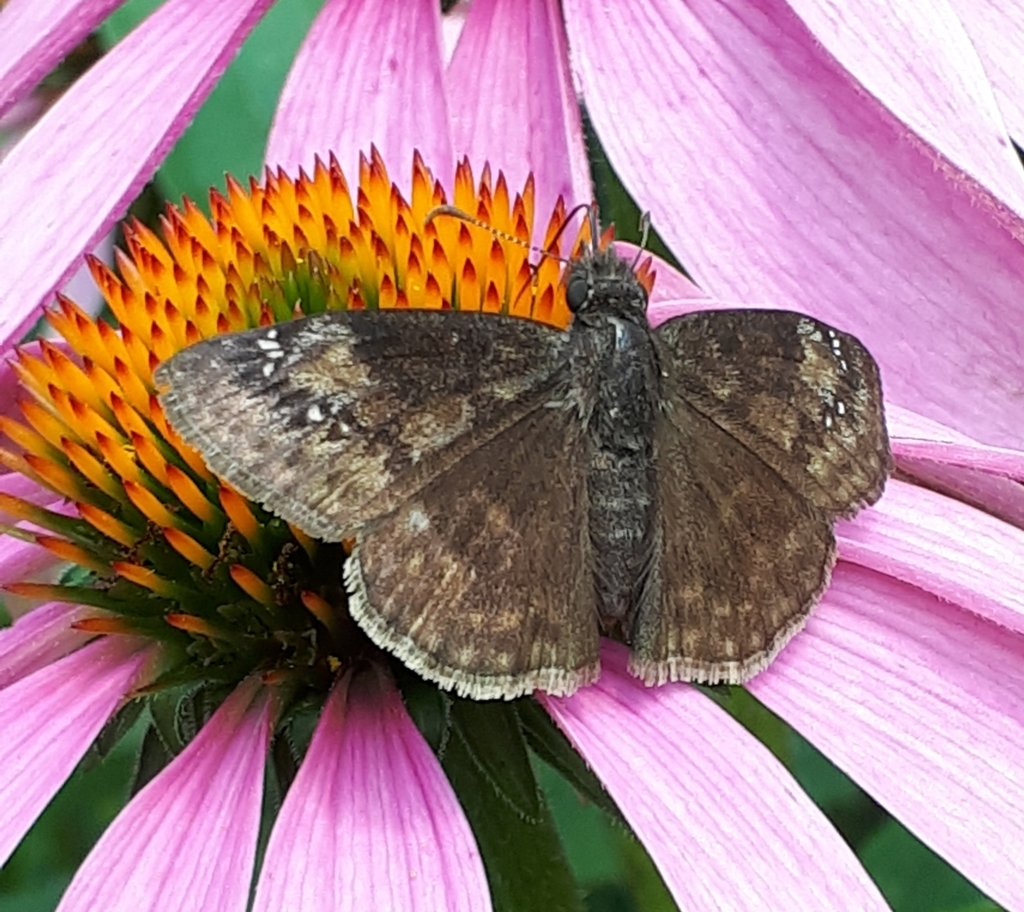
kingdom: Animalia
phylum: Arthropoda
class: Insecta
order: Lepidoptera
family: Hesperiidae
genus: Gesta
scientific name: Gesta
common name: Wild Indigo Duskywing
